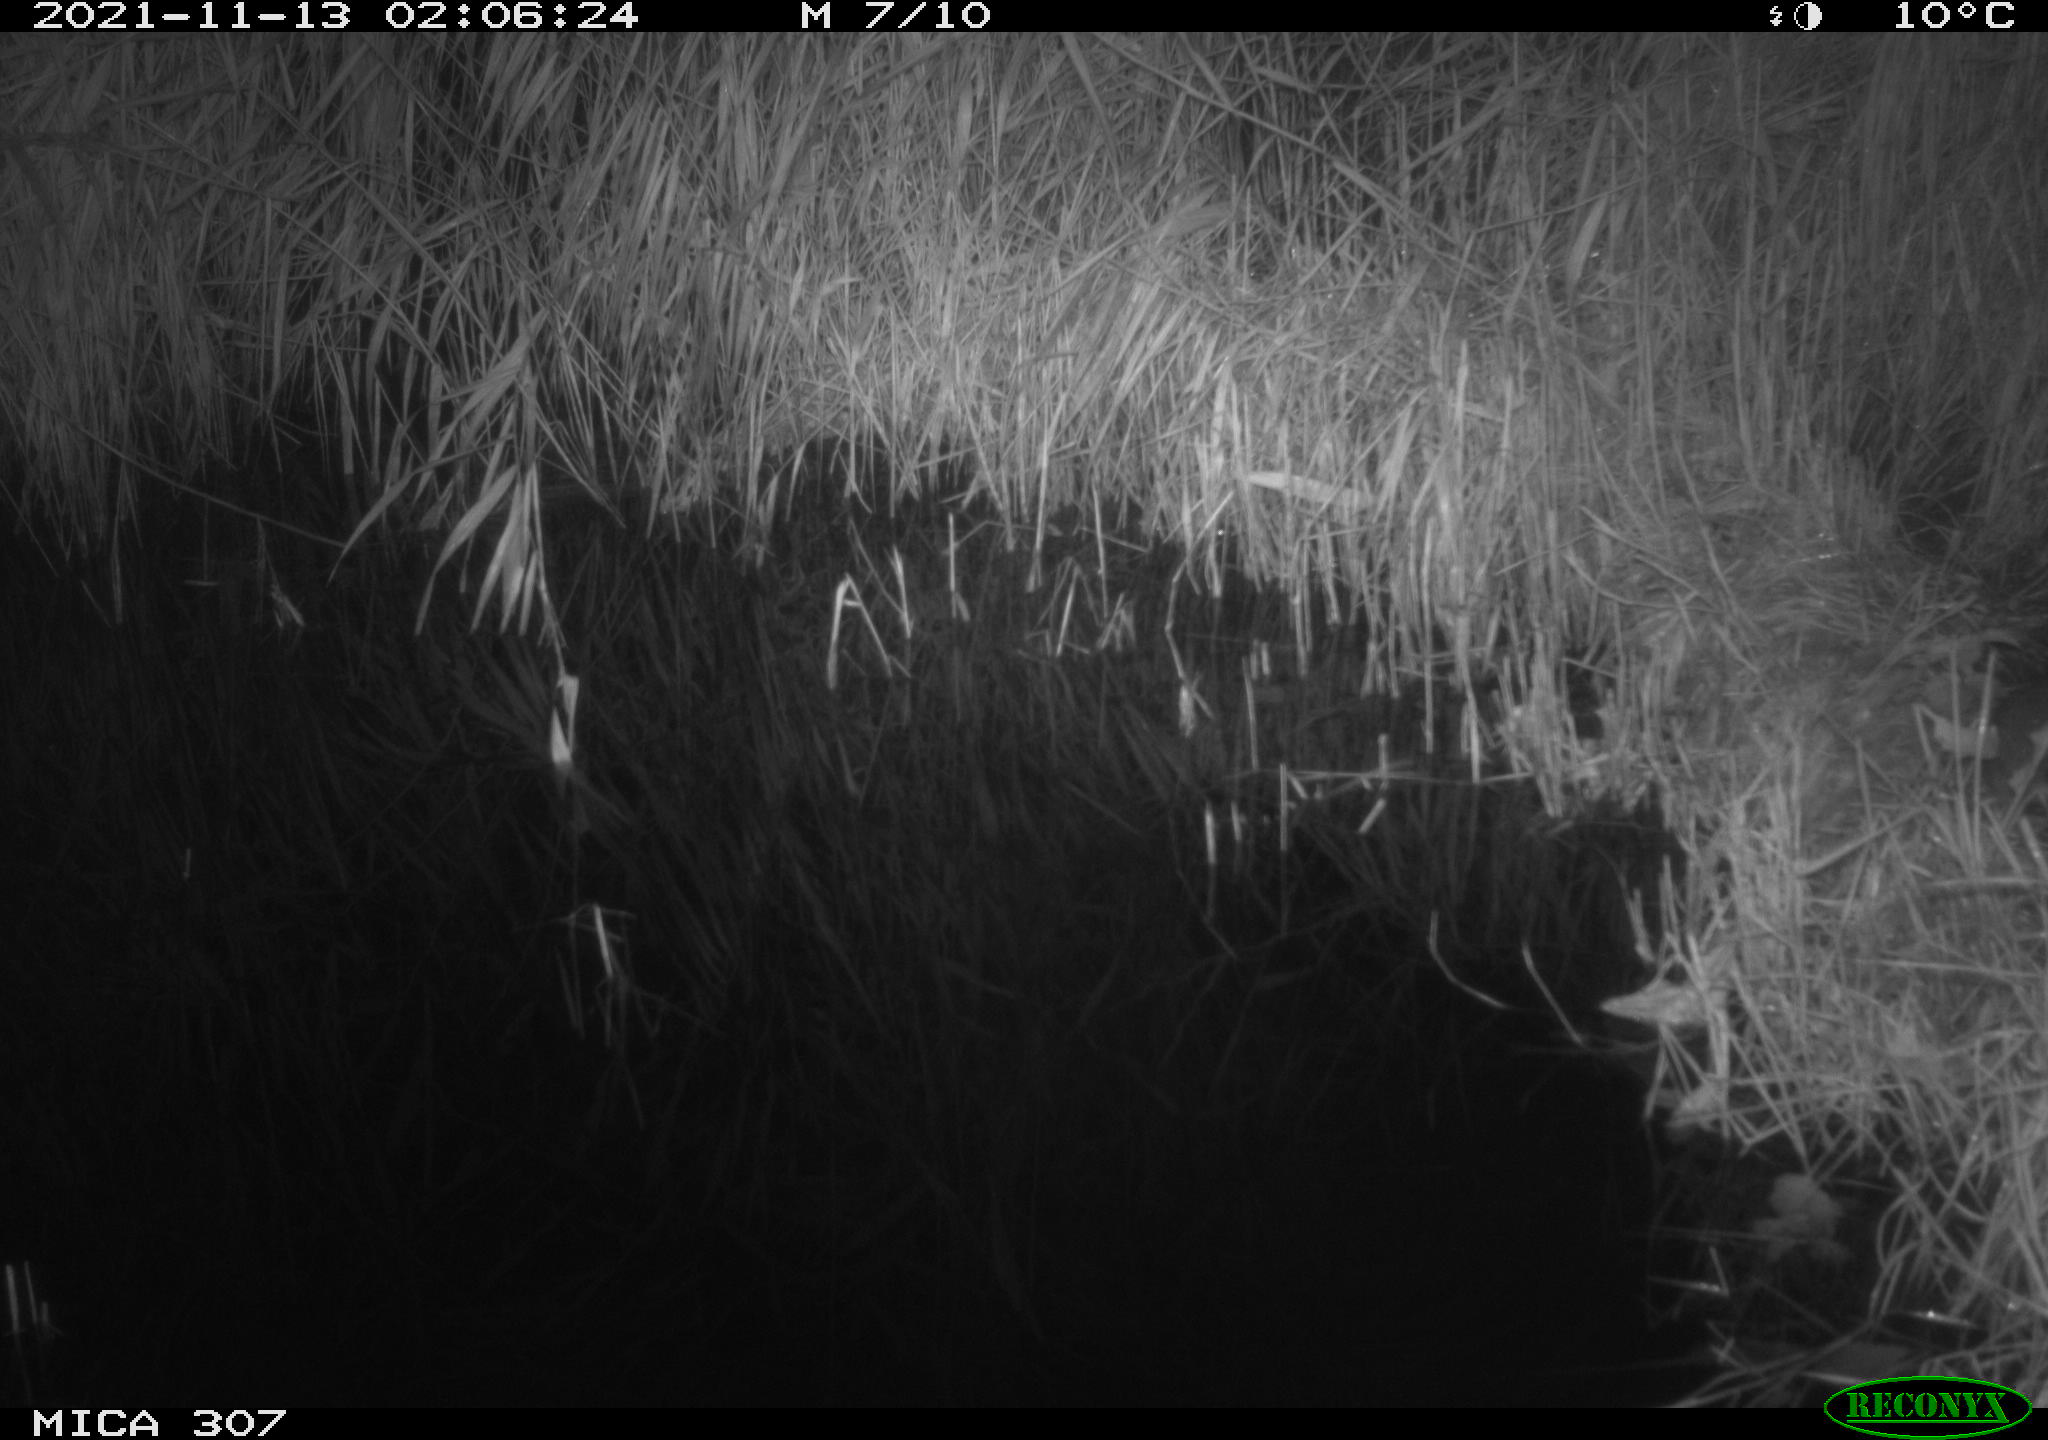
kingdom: Animalia
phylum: Chordata
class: Mammalia
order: Rodentia
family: Muridae
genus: Rattus
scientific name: Rattus norvegicus
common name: Brown rat
